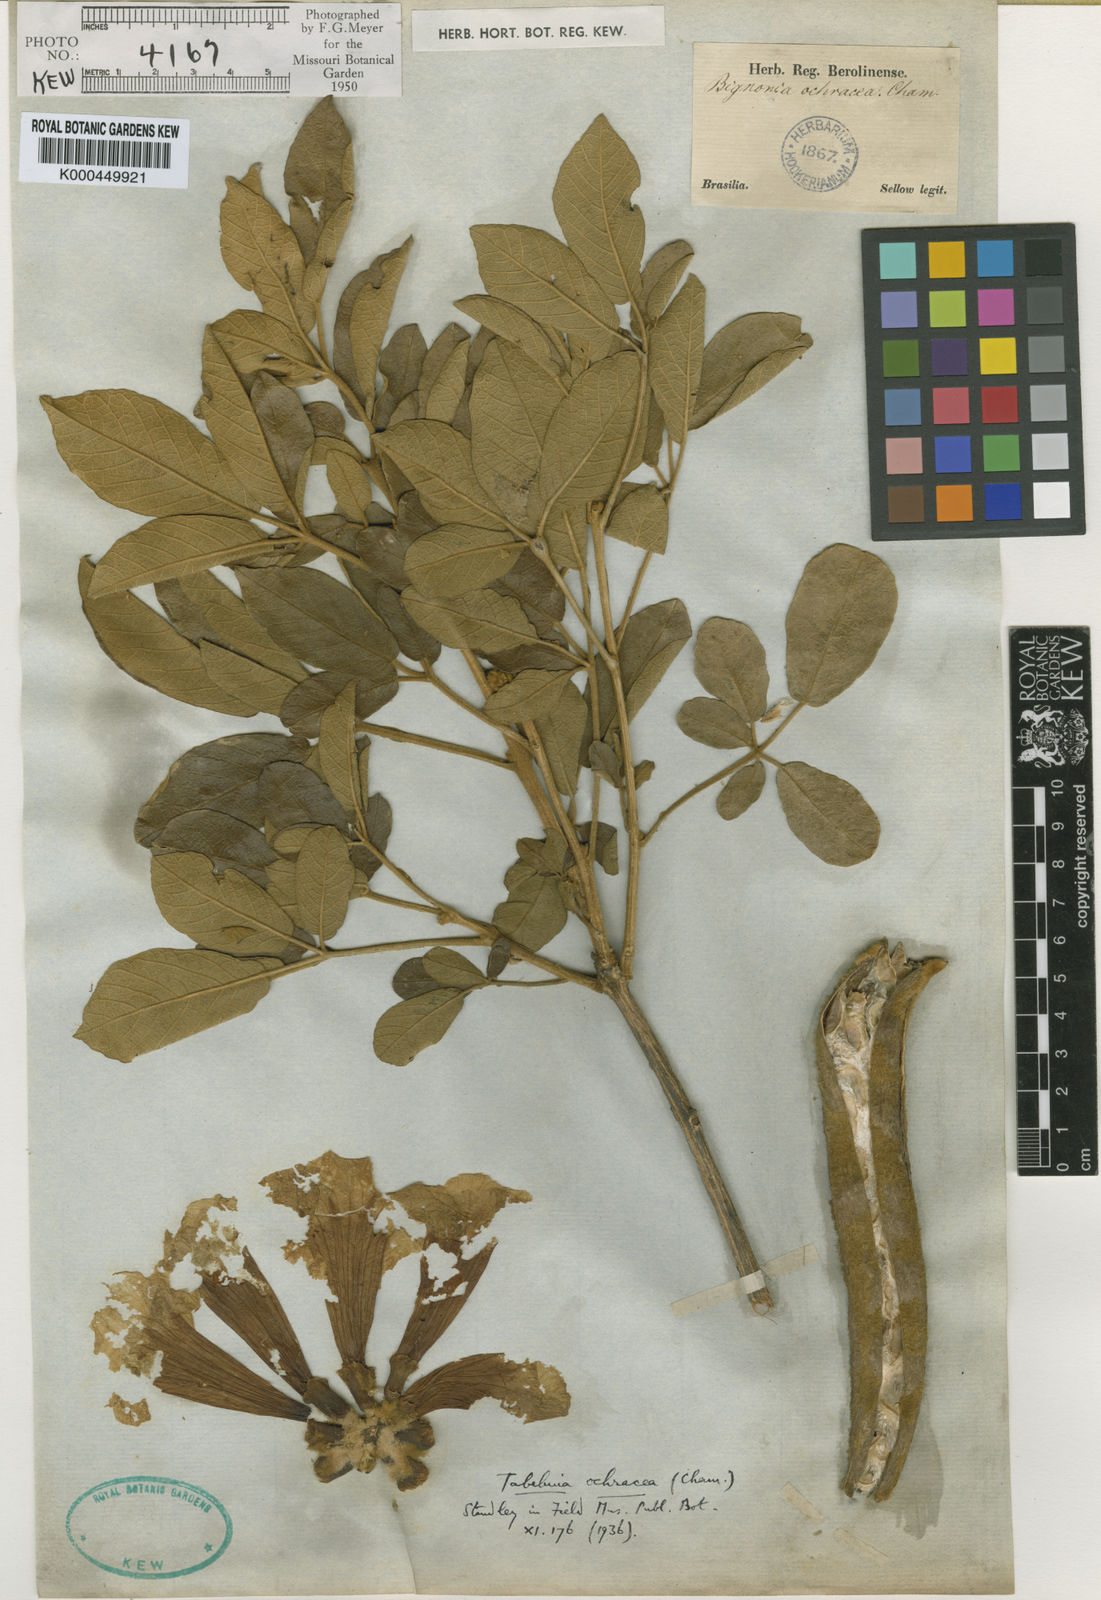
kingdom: Plantae
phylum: Tracheophyta
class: Magnoliopsida
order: Lamiales
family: Bignoniaceae
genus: Handroanthus
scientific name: Handroanthus ochraceus
